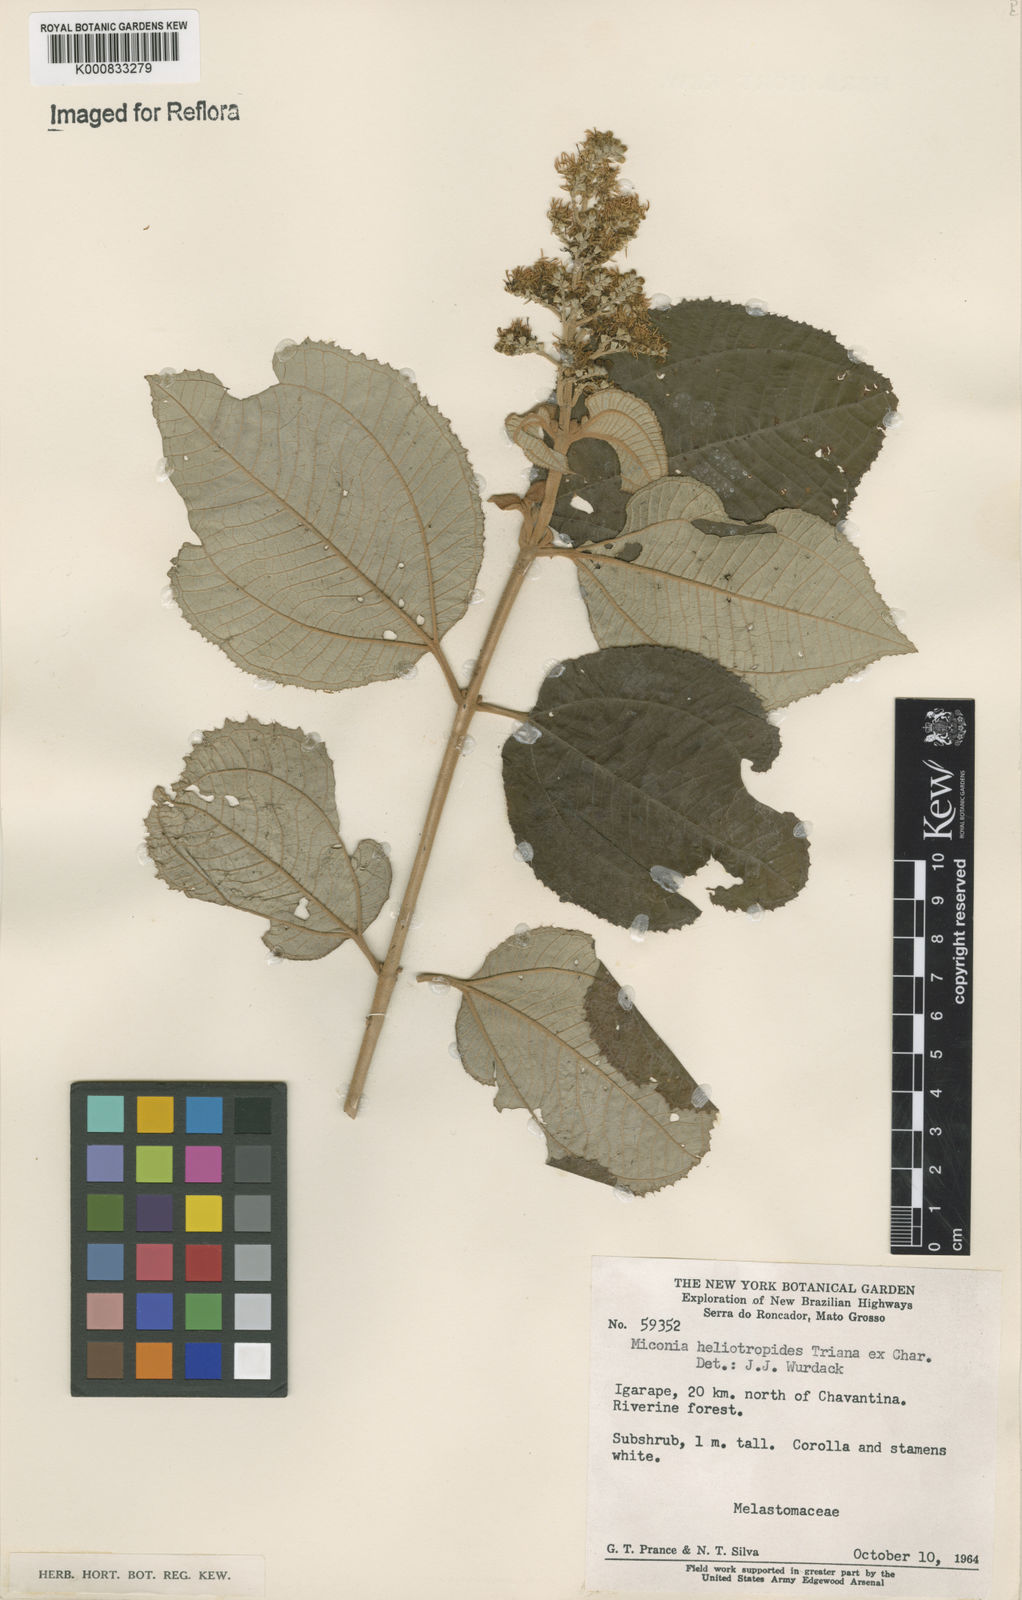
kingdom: Plantae
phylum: Tracheophyta
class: Magnoliopsida
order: Myrtales
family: Melastomataceae
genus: Miconia
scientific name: Miconia heliotropoides
